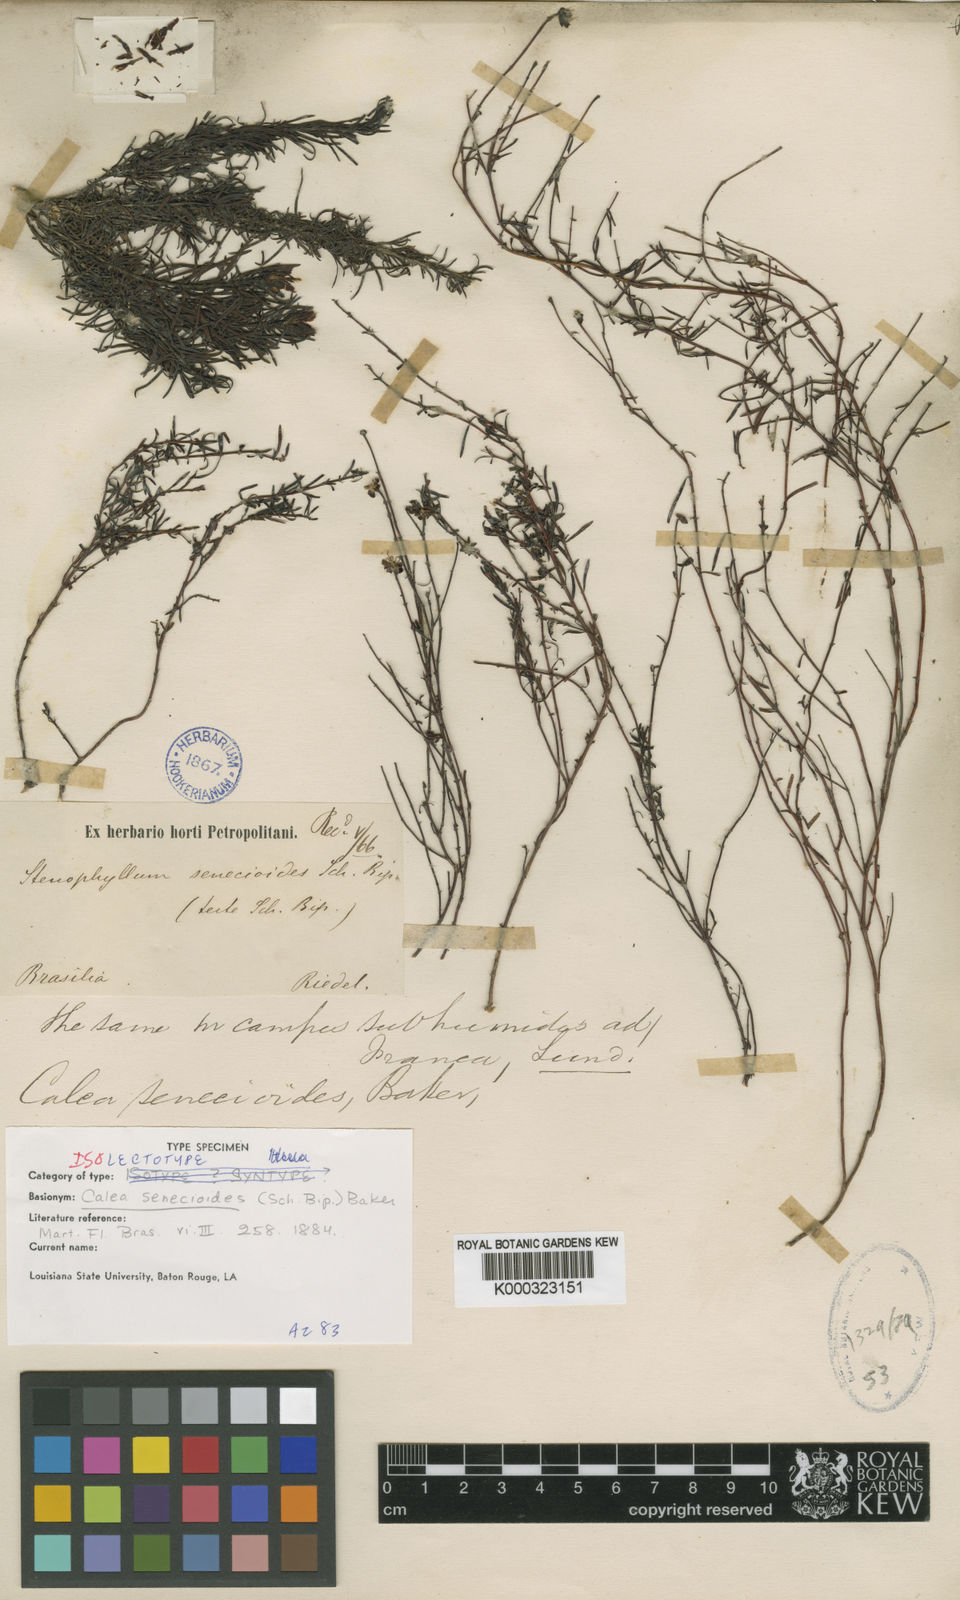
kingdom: Plantae
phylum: Tracheophyta
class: Magnoliopsida
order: Asterales
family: Asteraceae
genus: Calea
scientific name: Calea senecioides
